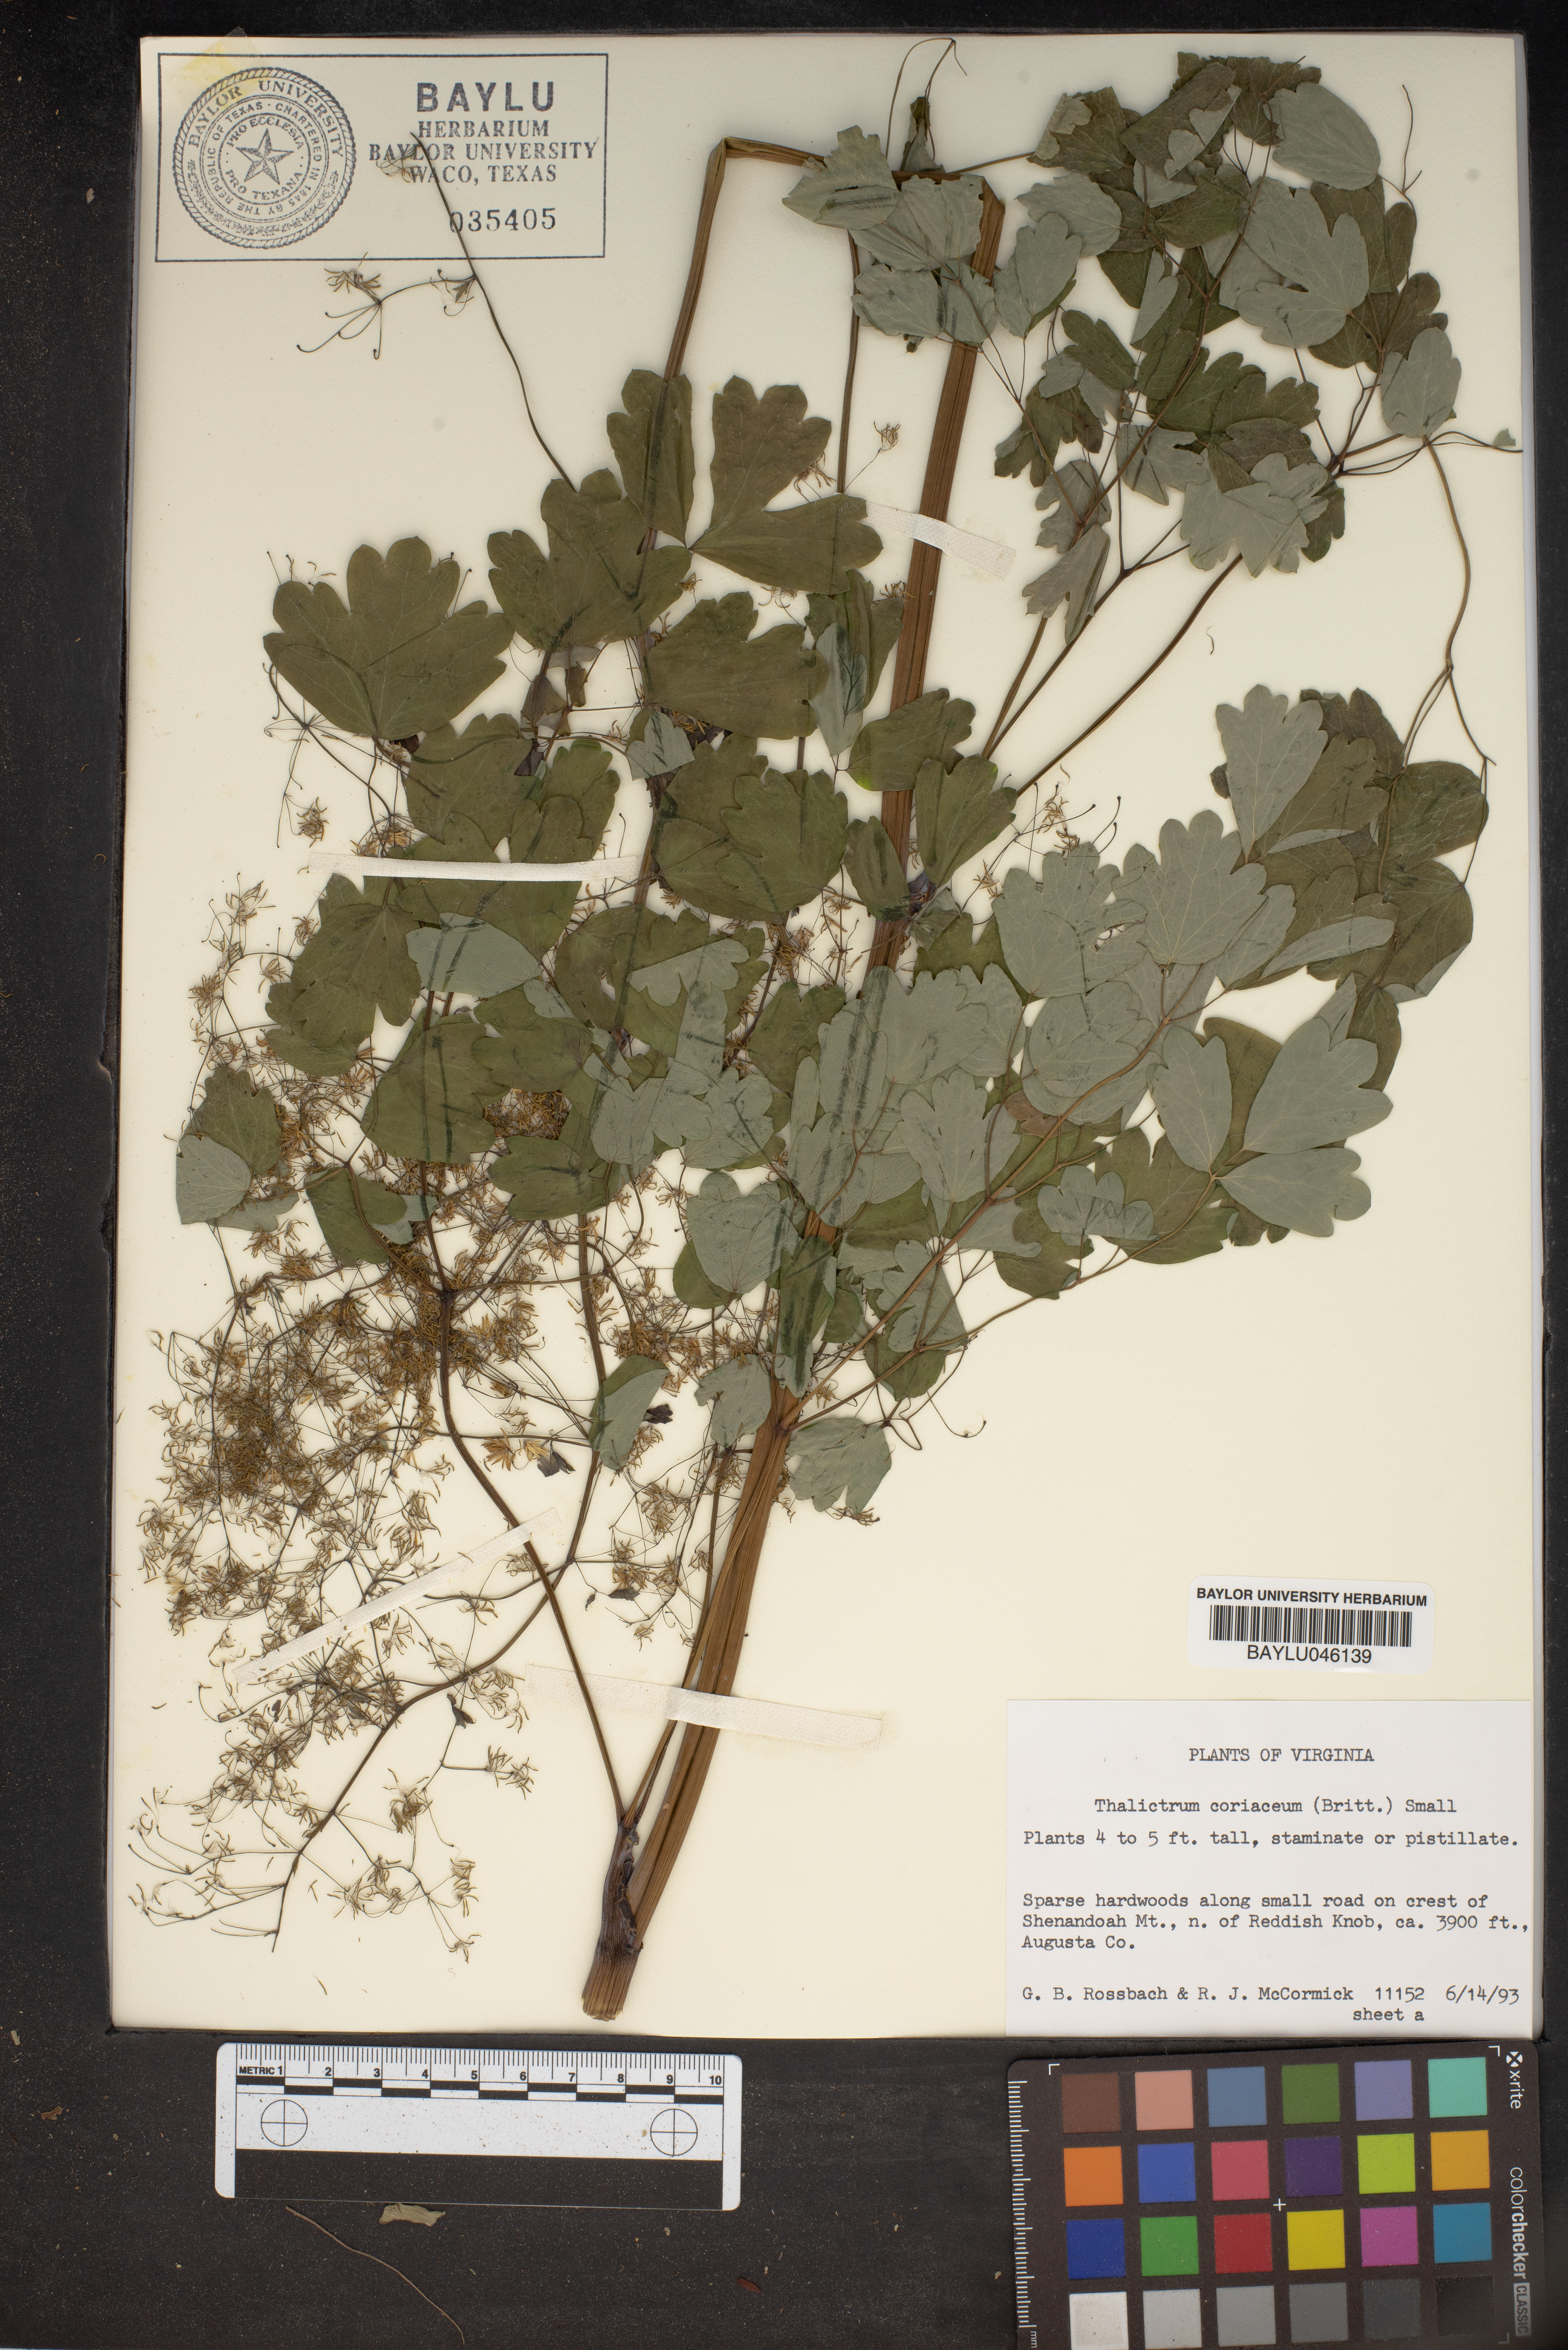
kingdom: Plantae
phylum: Tracheophyta
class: Magnoliopsida
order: Ranunculales
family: Ranunculaceae
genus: Thalictrum
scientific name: Thalictrum coriaceum
